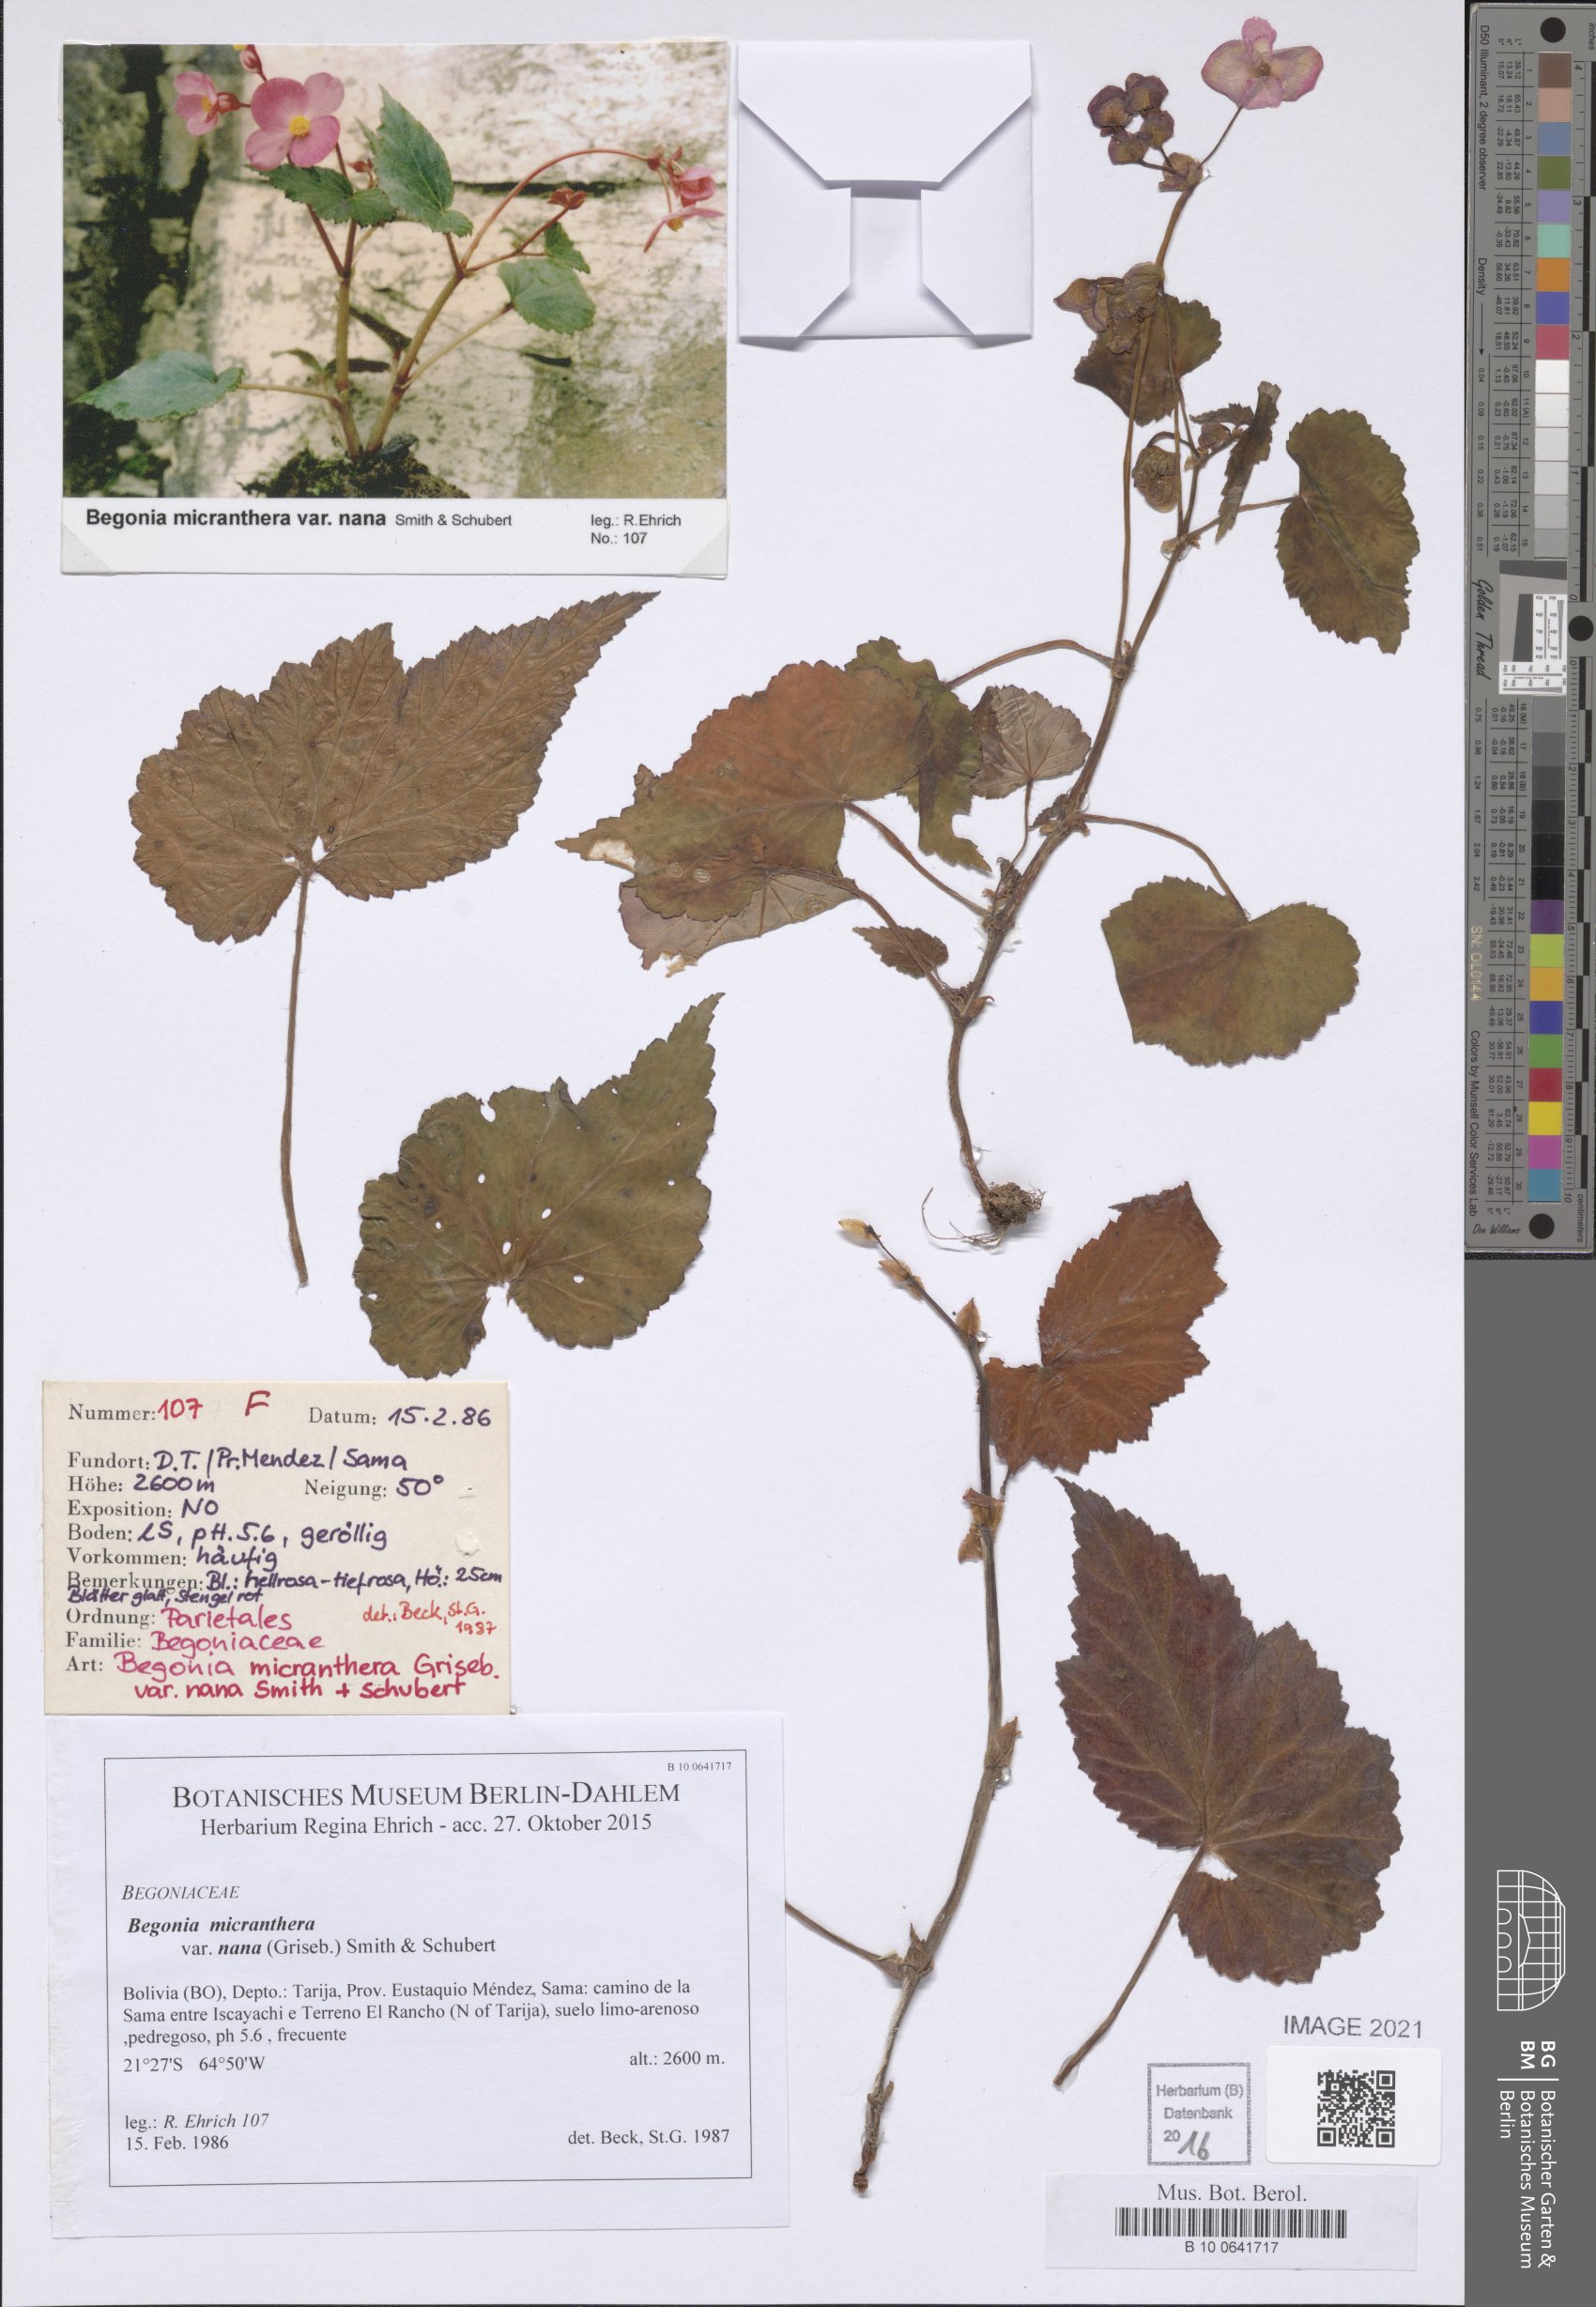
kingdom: Plantae
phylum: Tracheophyta
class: Magnoliopsida
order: Cucurbitales
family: Begoniaceae
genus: Begonia
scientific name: Begonia micranthera
